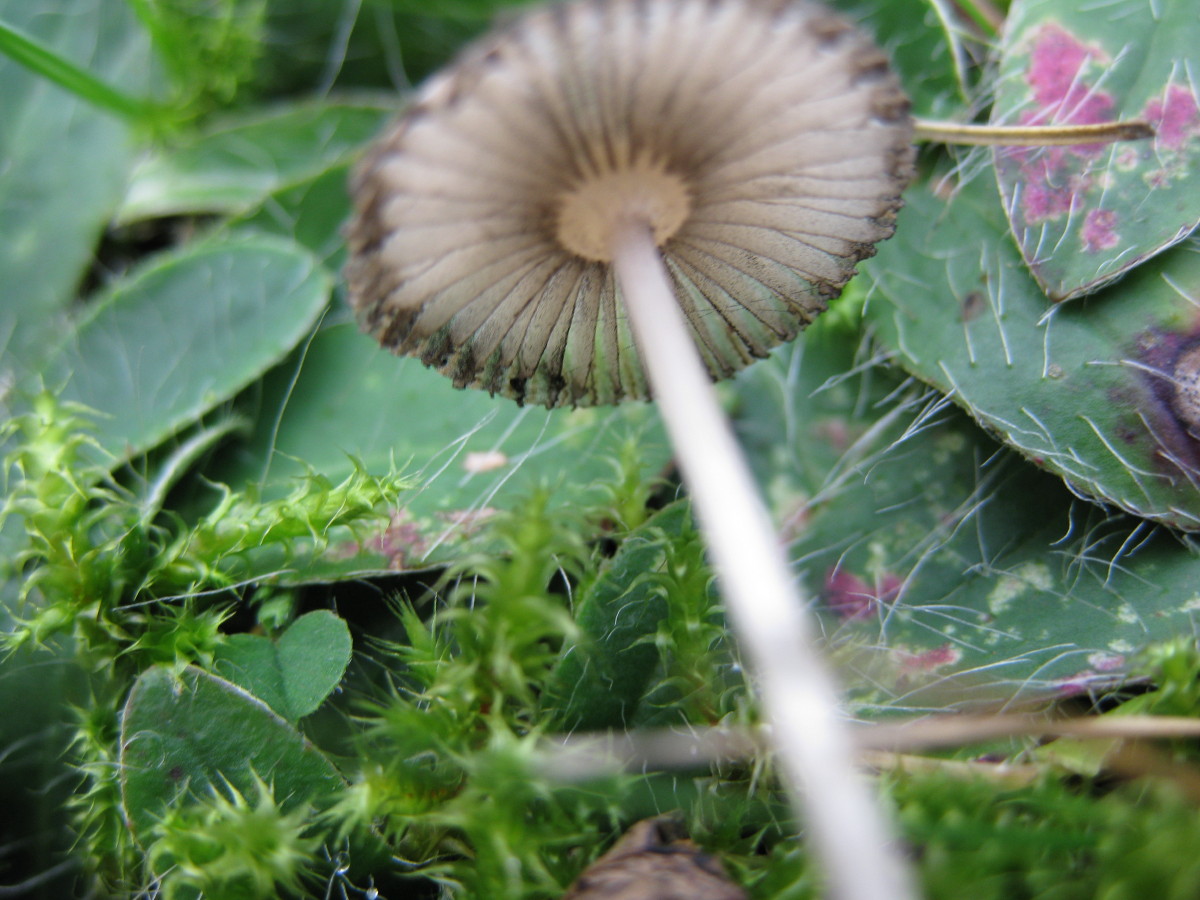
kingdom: Fungi
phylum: Basidiomycota
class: Agaricomycetes
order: Agaricales
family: Psathyrellaceae
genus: Parasola
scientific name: Parasola plicatilis
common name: plæne-hjulhat
